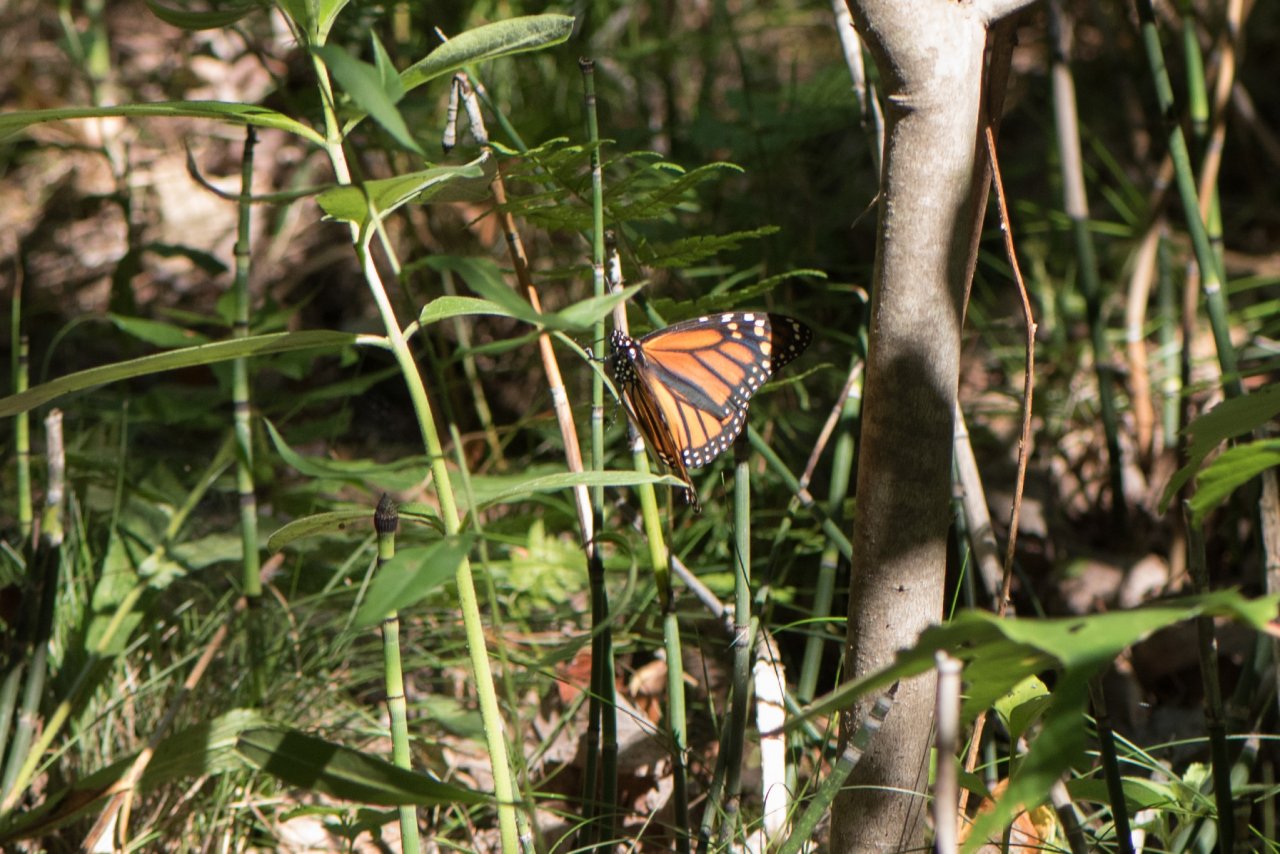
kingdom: Animalia
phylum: Arthropoda
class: Insecta
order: Lepidoptera
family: Nymphalidae
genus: Danaus
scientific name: Danaus plexippus
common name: Monarch
